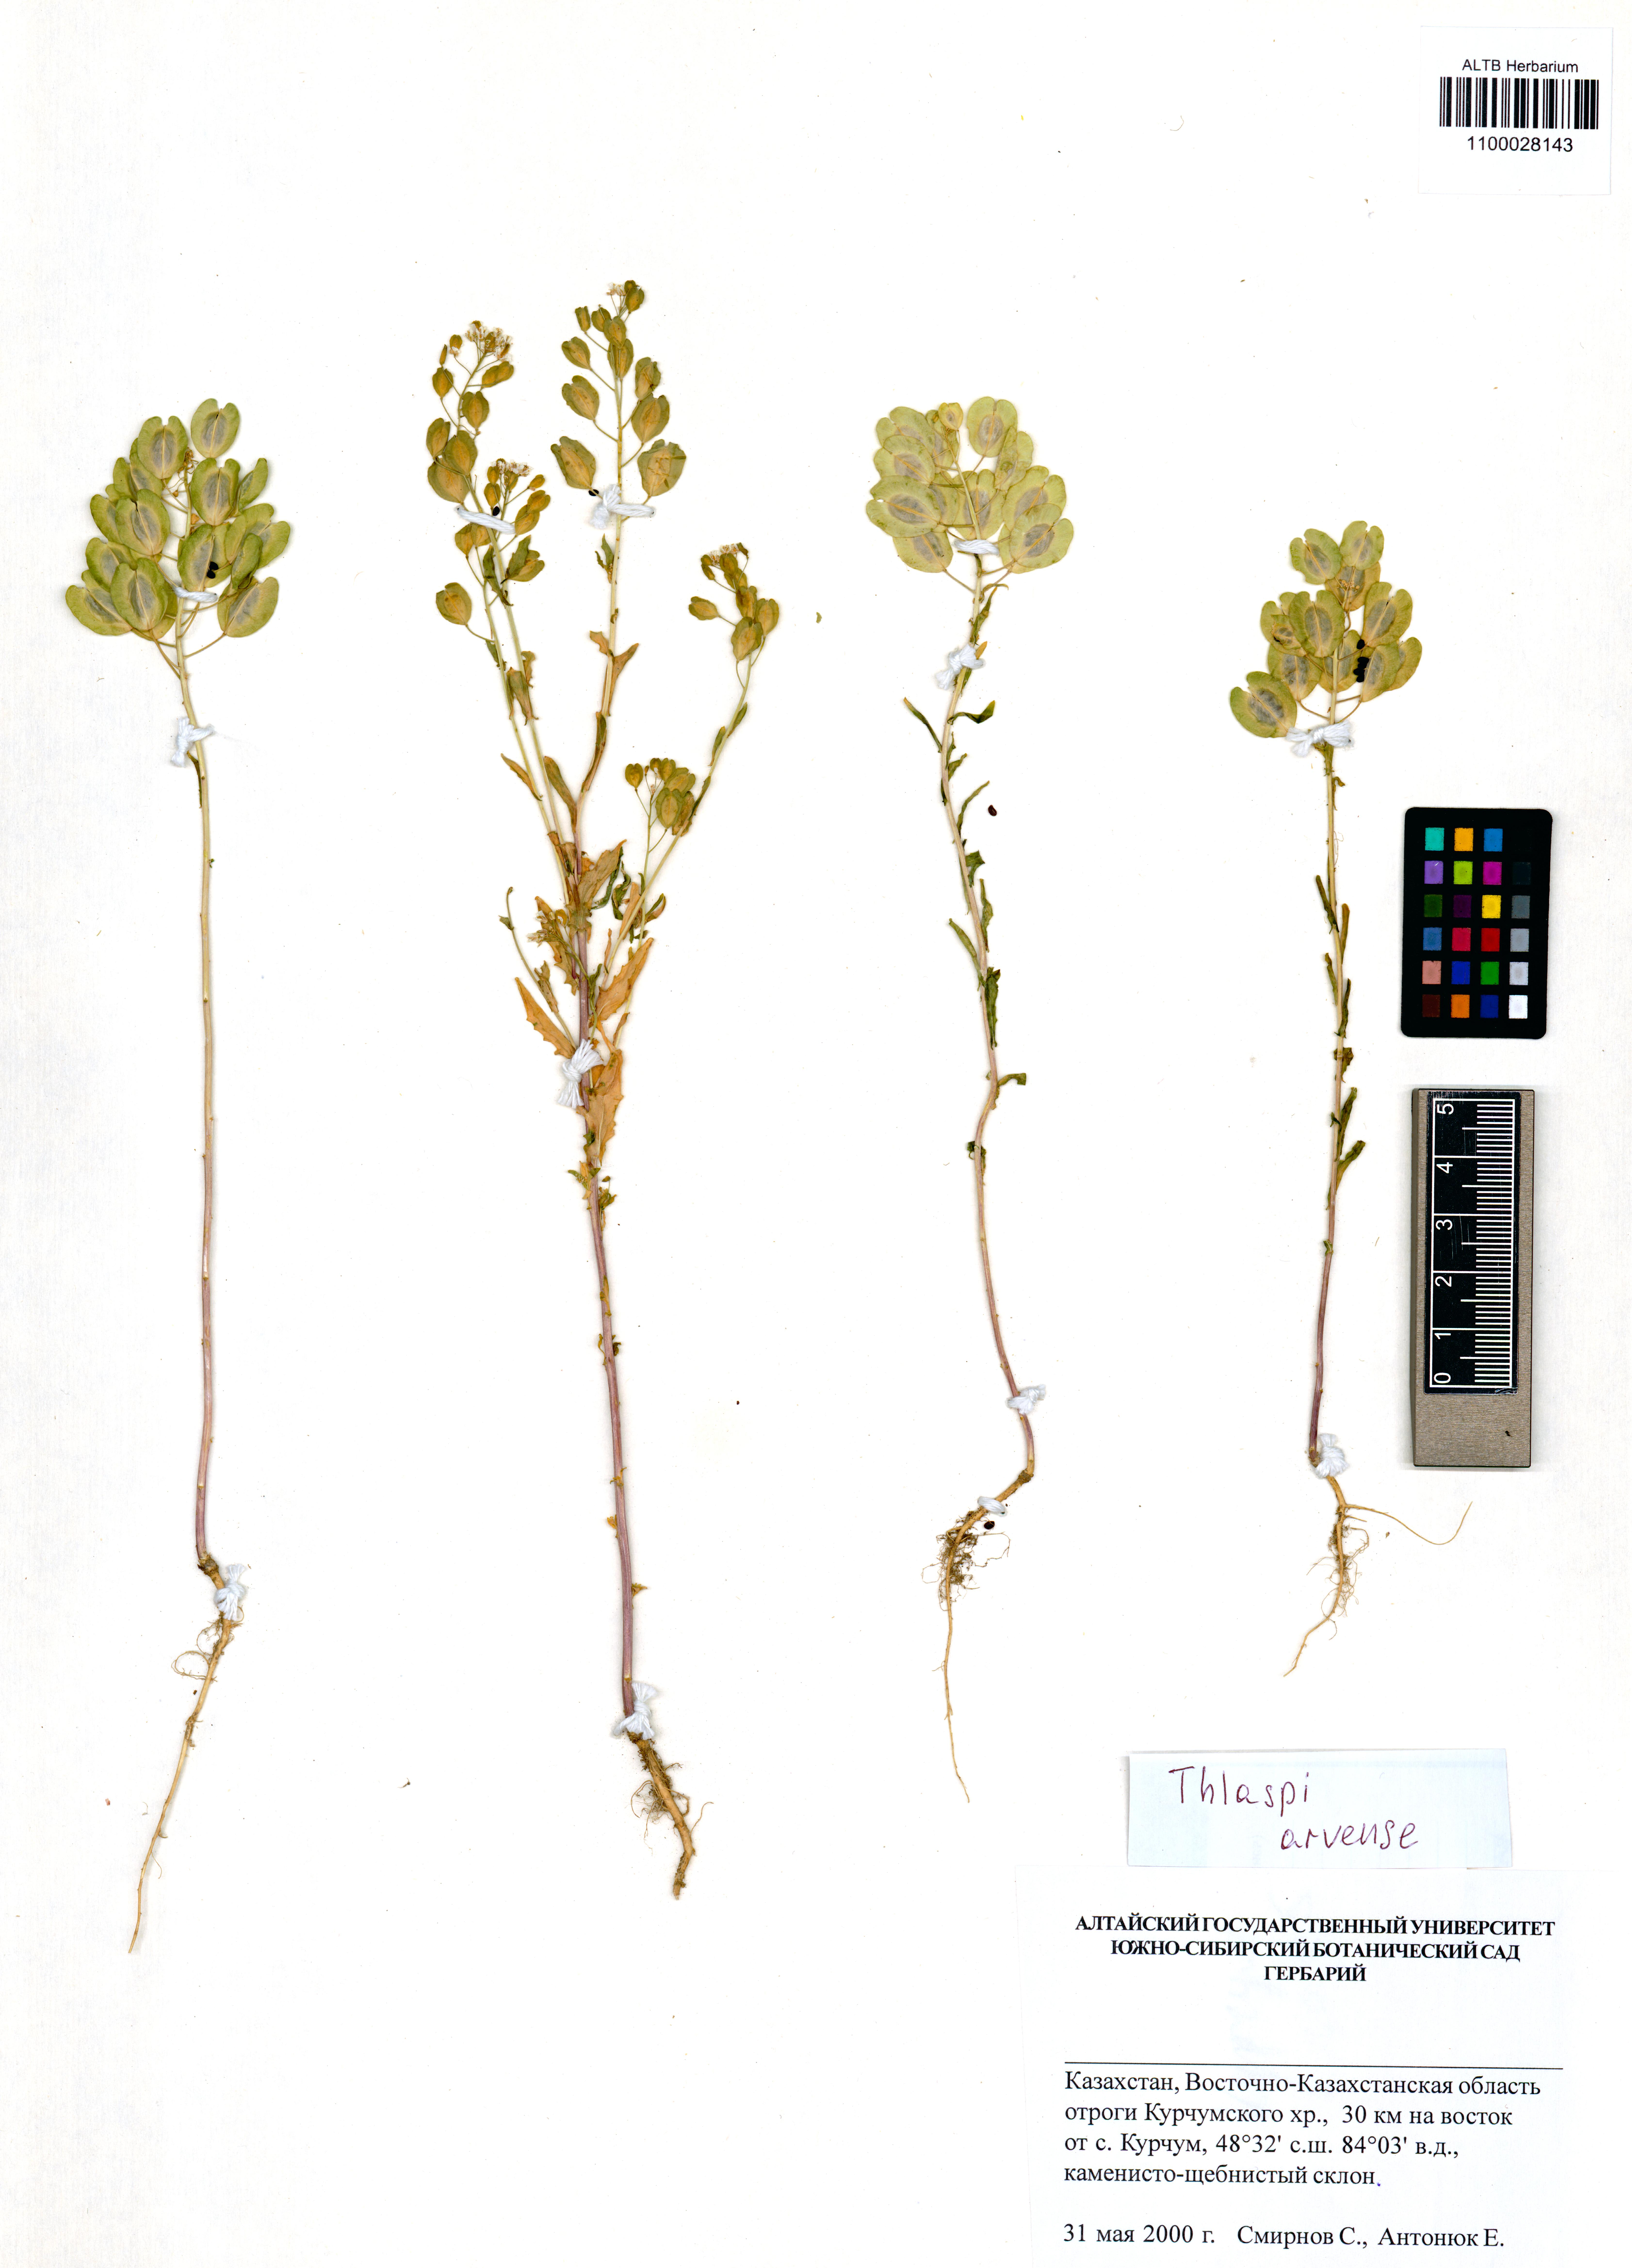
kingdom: Plantae
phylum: Tracheophyta
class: Magnoliopsida
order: Brassicales
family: Brassicaceae
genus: Thlaspi
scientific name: Thlaspi arvense
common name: Field pennycress
